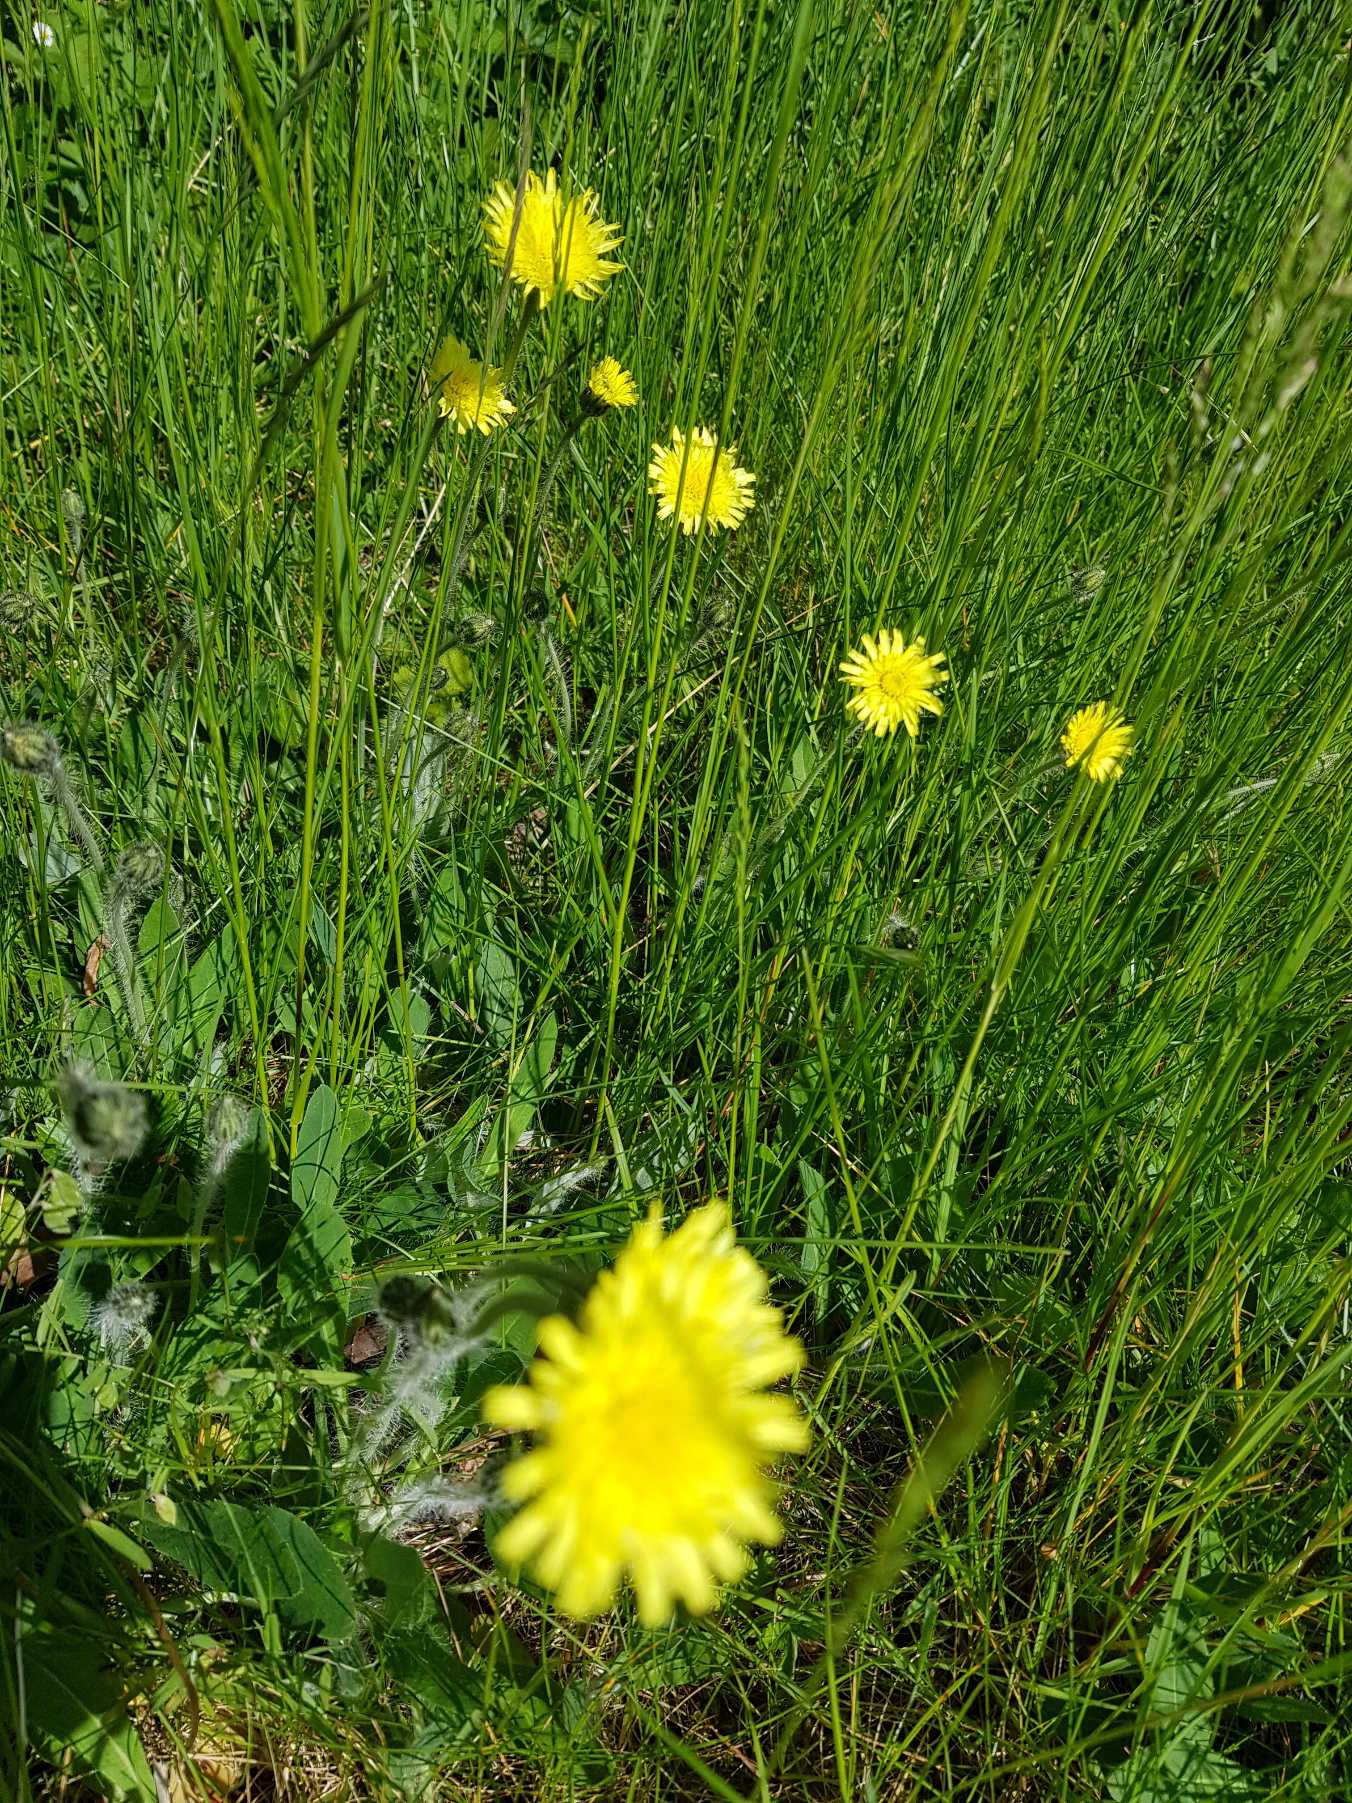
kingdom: Plantae
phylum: Tracheophyta
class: Magnoliopsida
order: Asterales
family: Asteraceae
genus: Pilosella
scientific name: Pilosella officinarum
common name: Håret høgeurt
